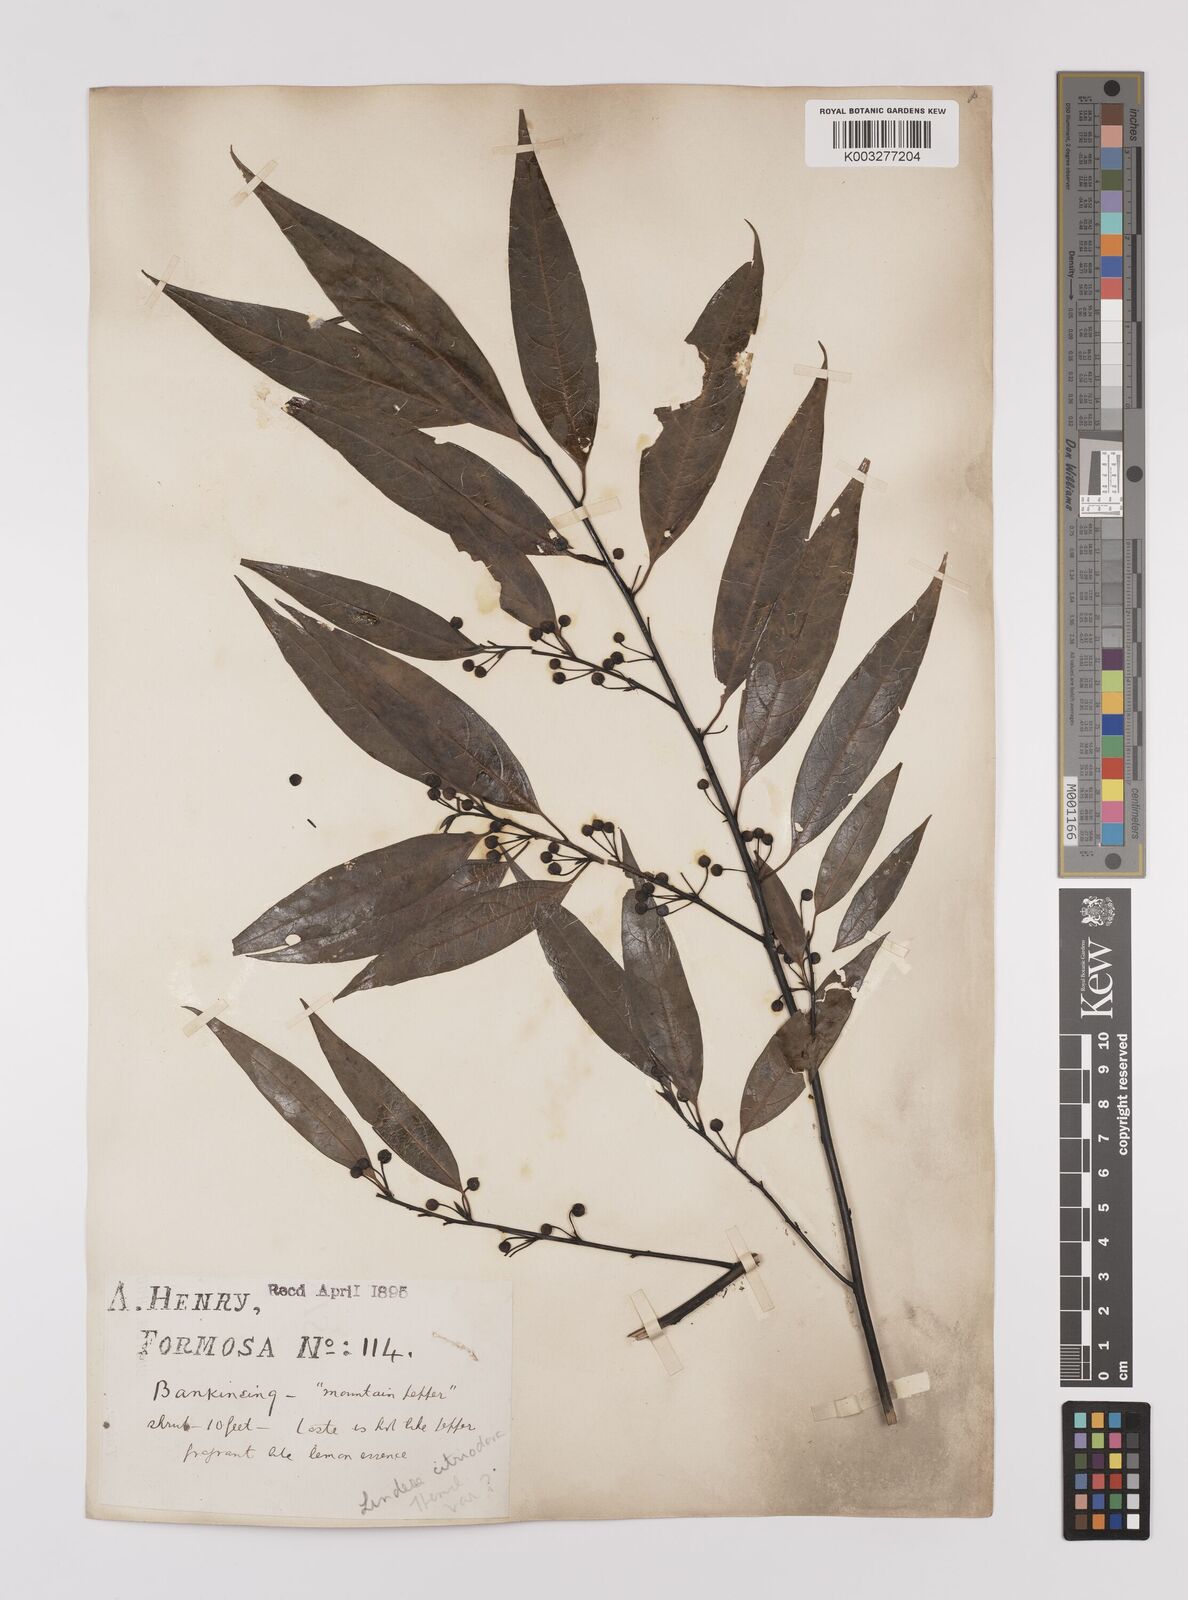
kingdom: Plantae
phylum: Tracheophyta
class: Magnoliopsida
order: Laurales
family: Lauraceae
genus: Litsea
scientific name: Litsea cubeba
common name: Mountain-pepper
